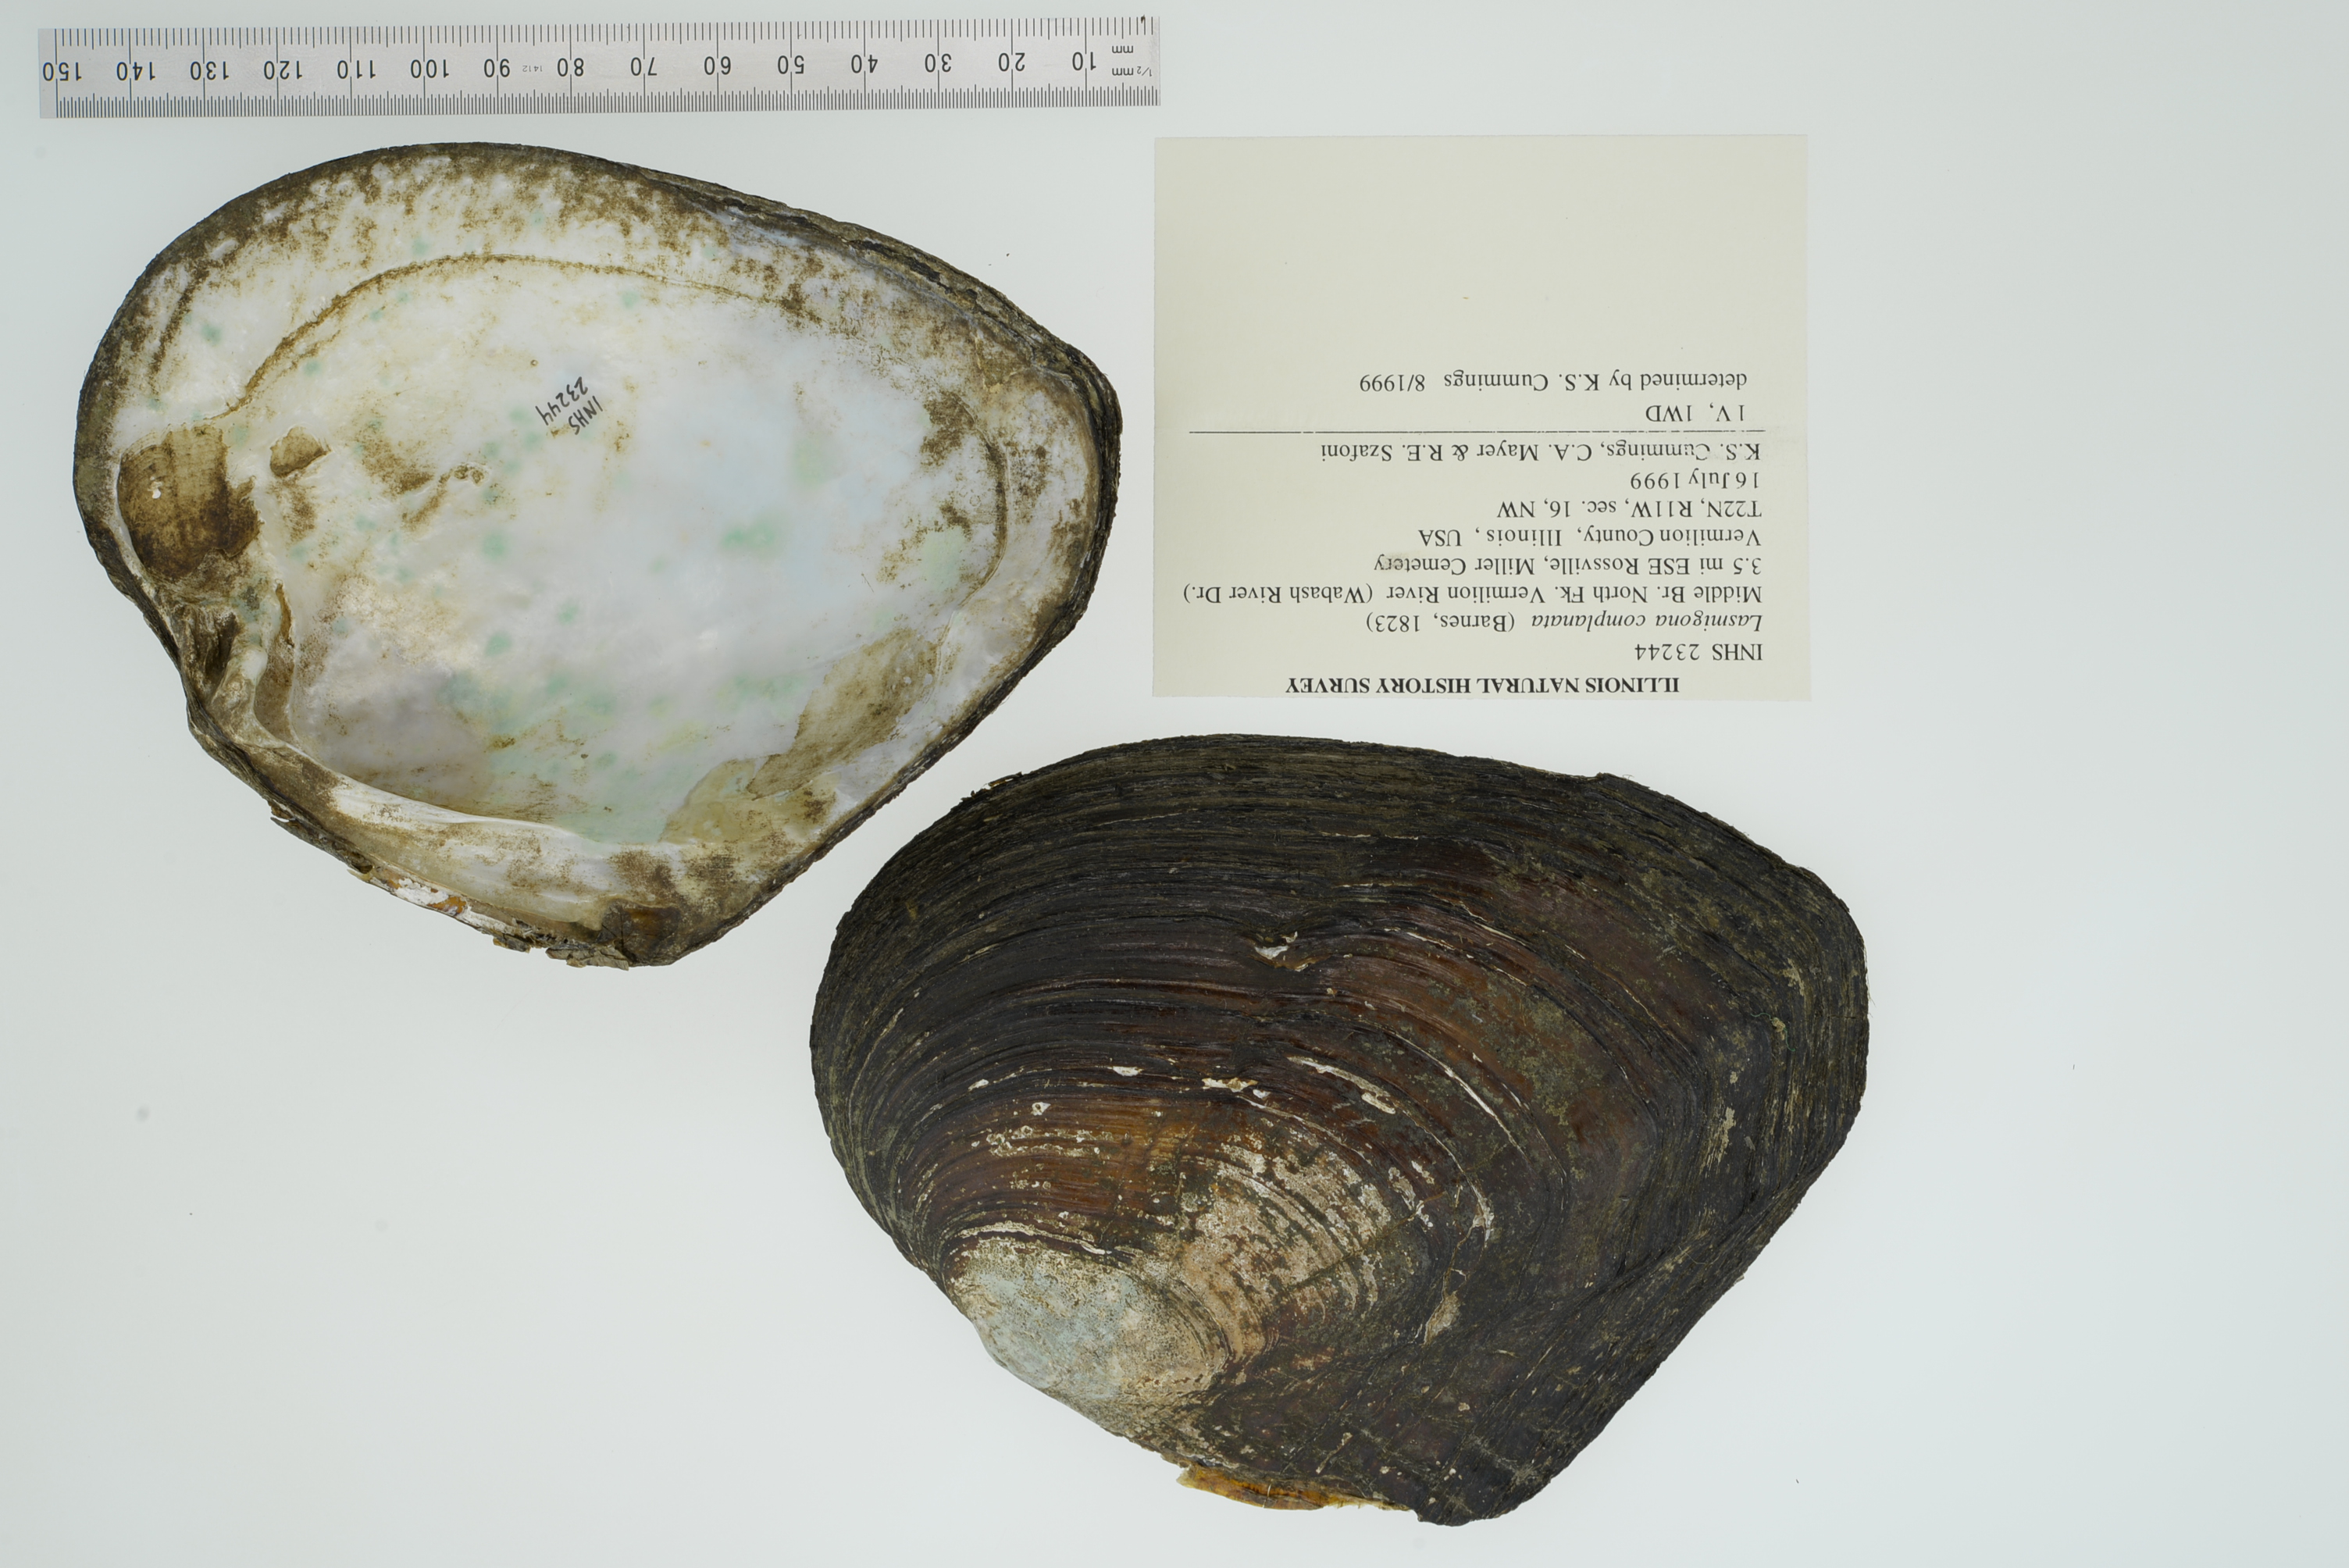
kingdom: Animalia
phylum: Mollusca
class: Bivalvia
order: Unionida
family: Unionidae
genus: Lasmigona
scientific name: Lasmigona complanata
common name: White heelsplitter
